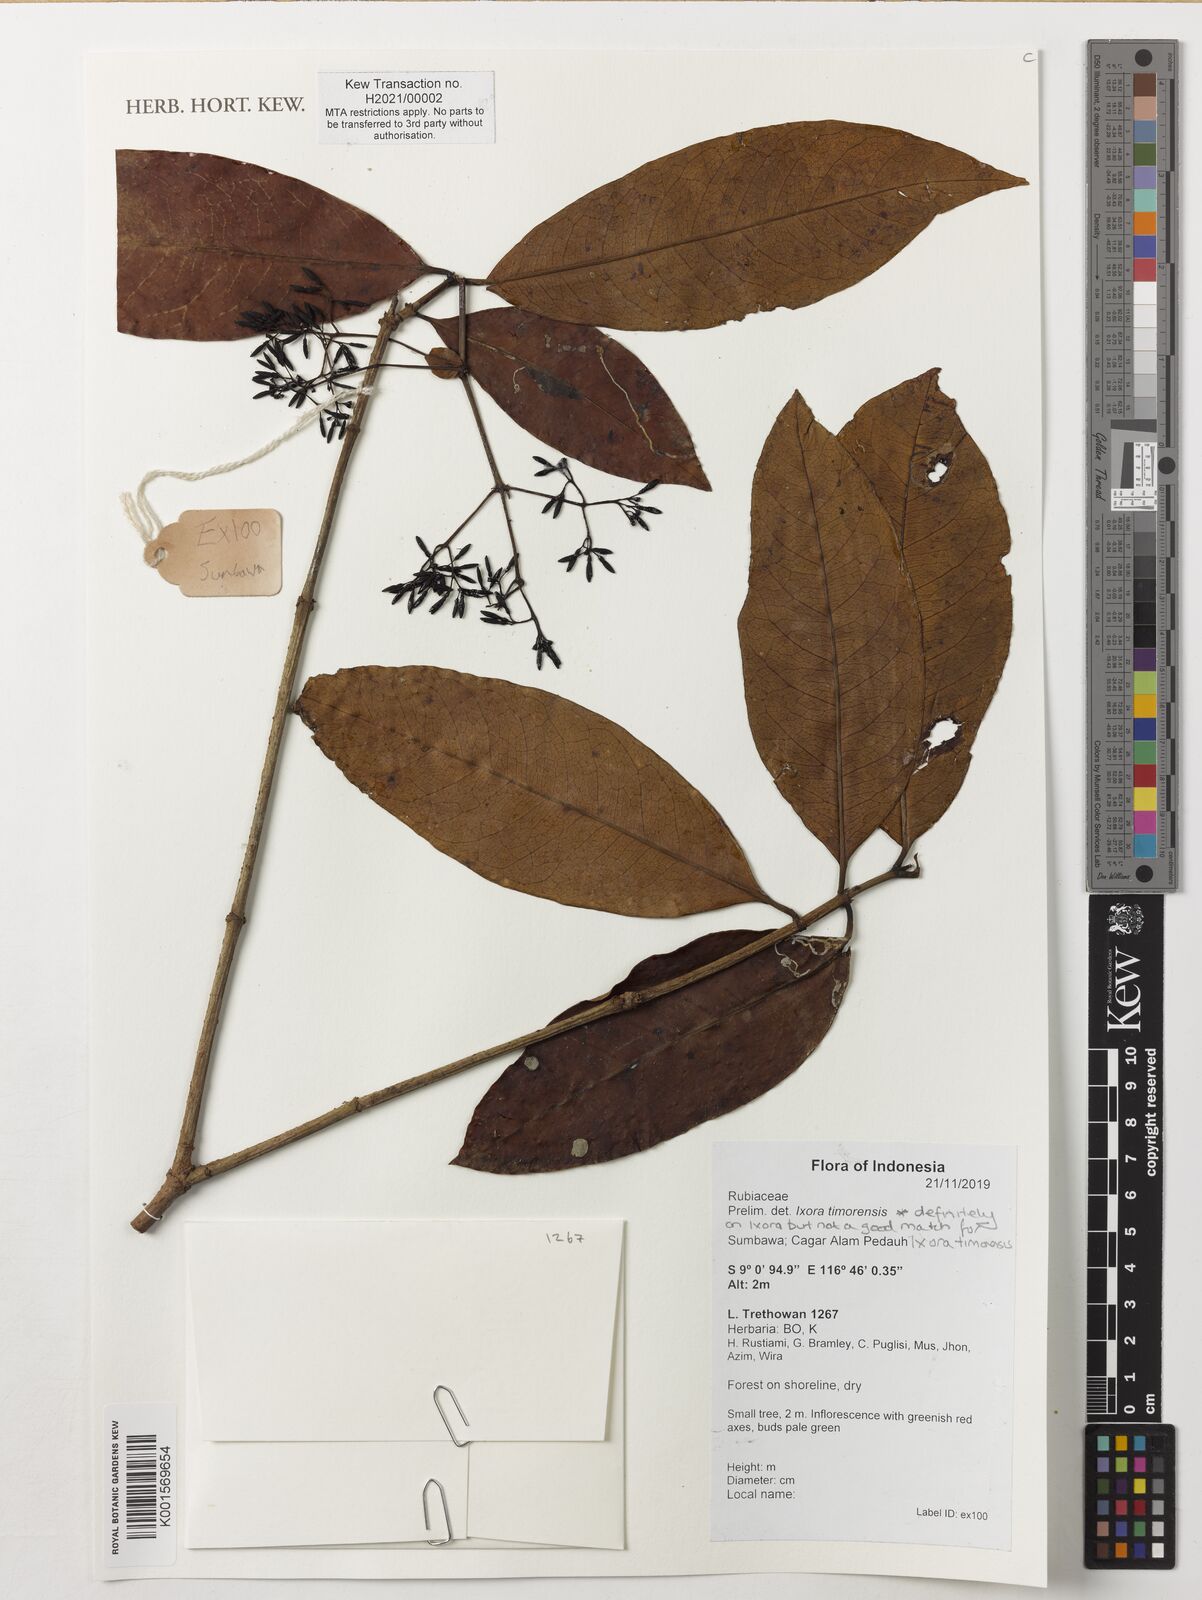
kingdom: Plantae
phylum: Tracheophyta
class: Magnoliopsida
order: Gentianales
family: Rubiaceae
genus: Ixora
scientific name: Ixora
